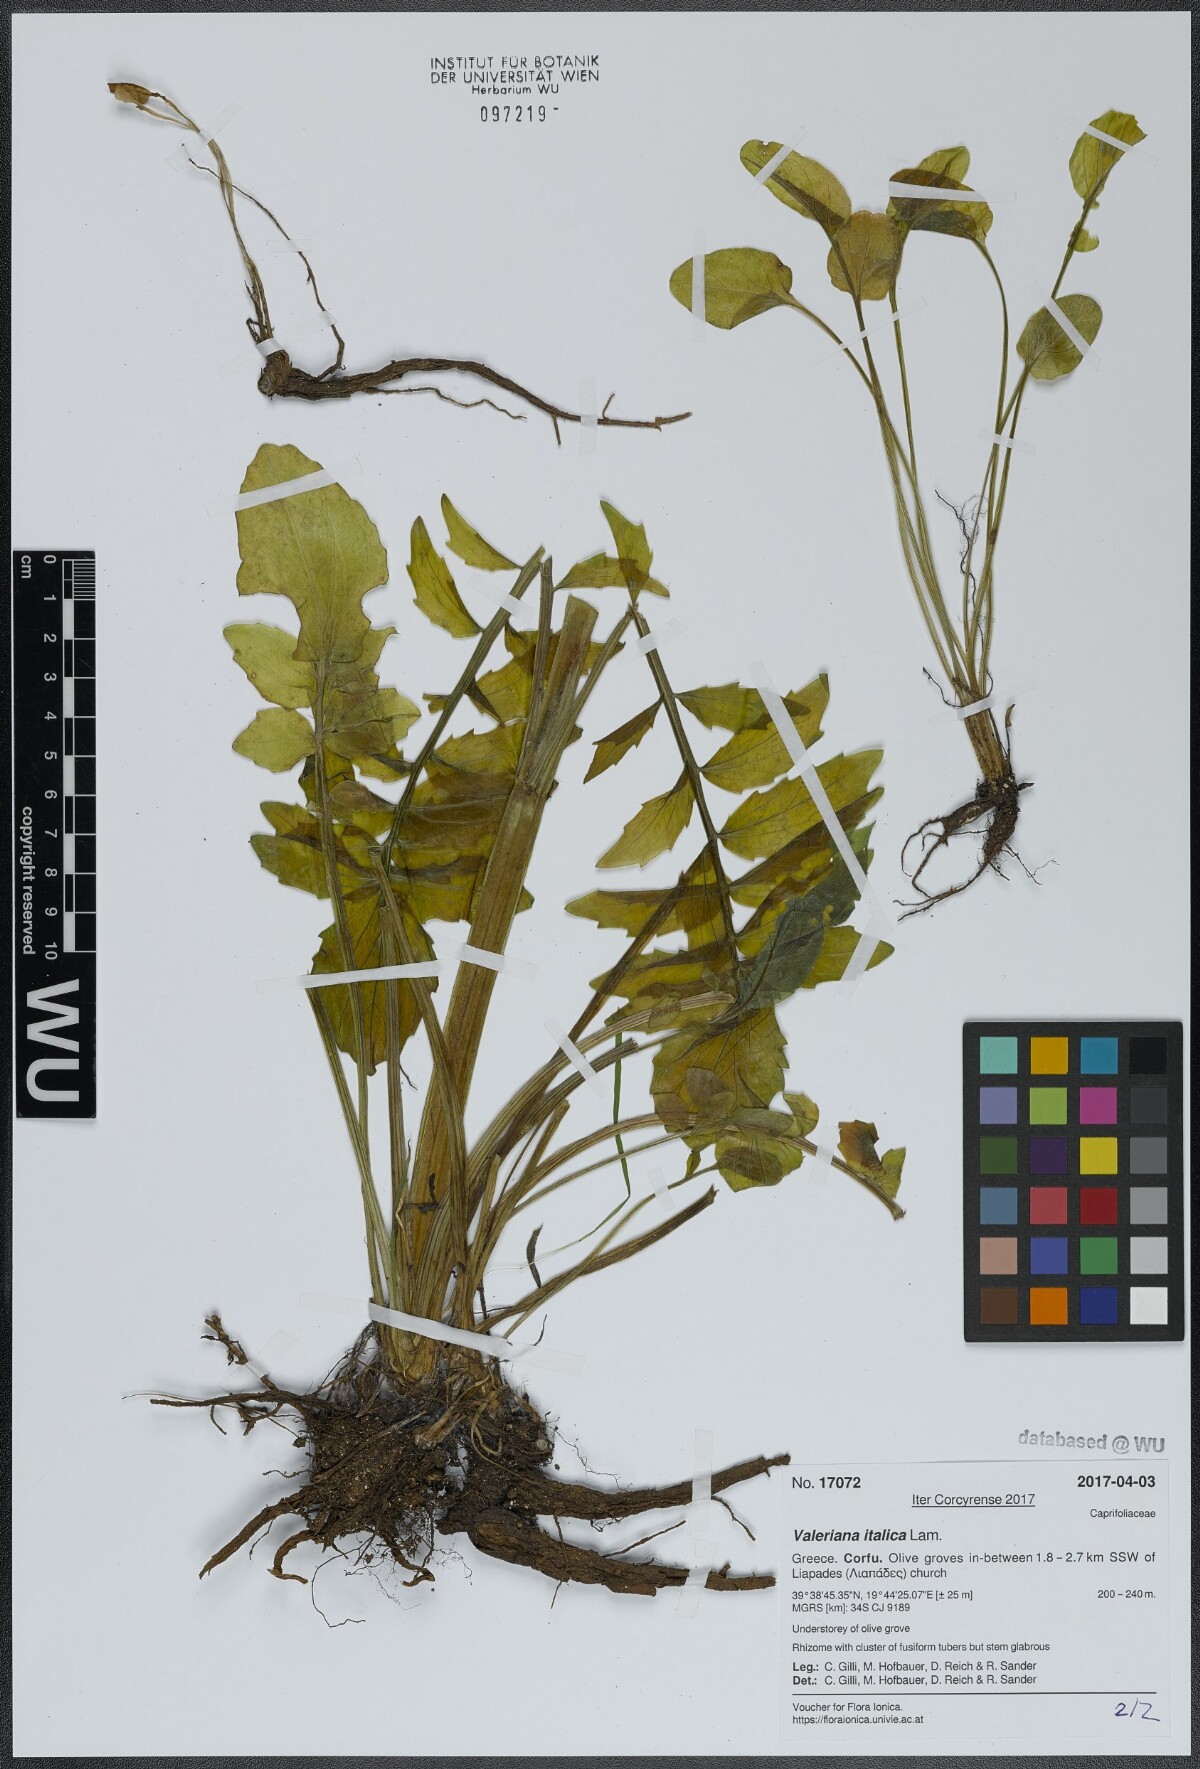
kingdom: Plantae
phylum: Tracheophyta
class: Magnoliopsida
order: Dipsacales
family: Caprifoliaceae
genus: Valeriana
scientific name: Valeriana dioscoridis
